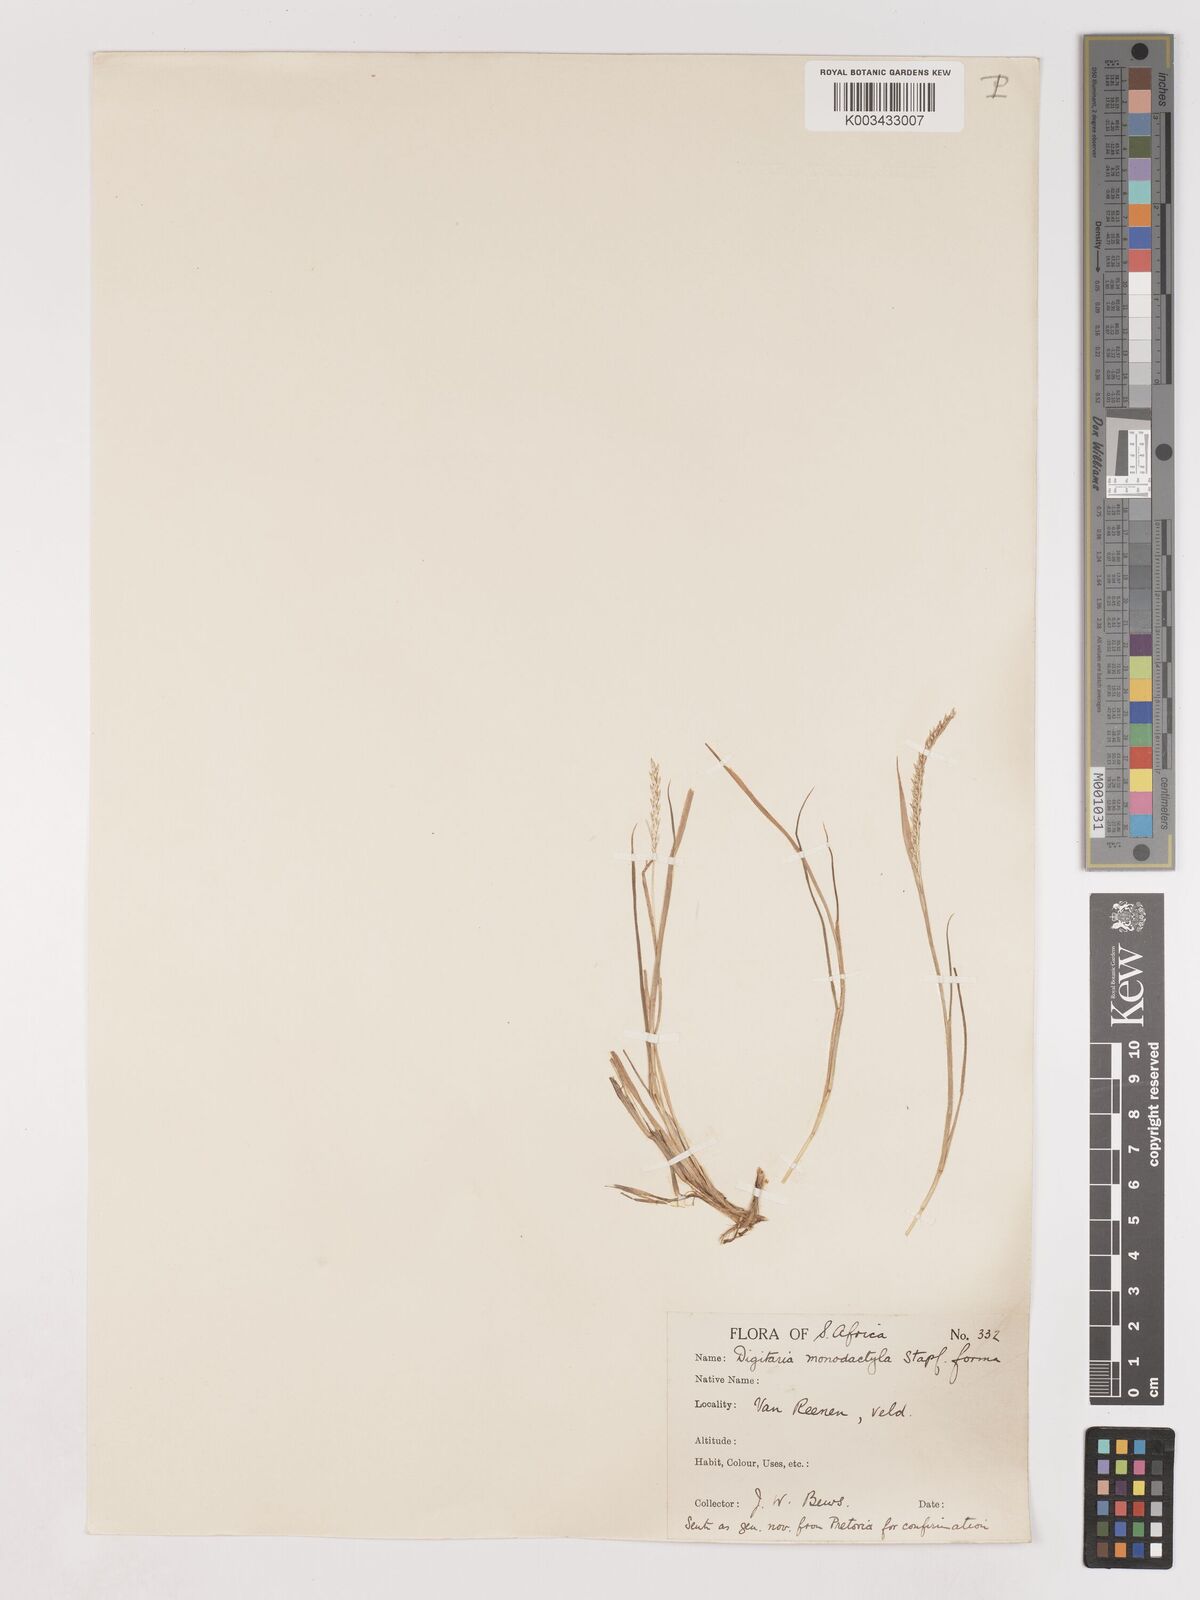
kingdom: Plantae
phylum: Tracheophyta
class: Liliopsida
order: Poales
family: Poaceae
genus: Digitaria
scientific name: Digitaria monodactyla
